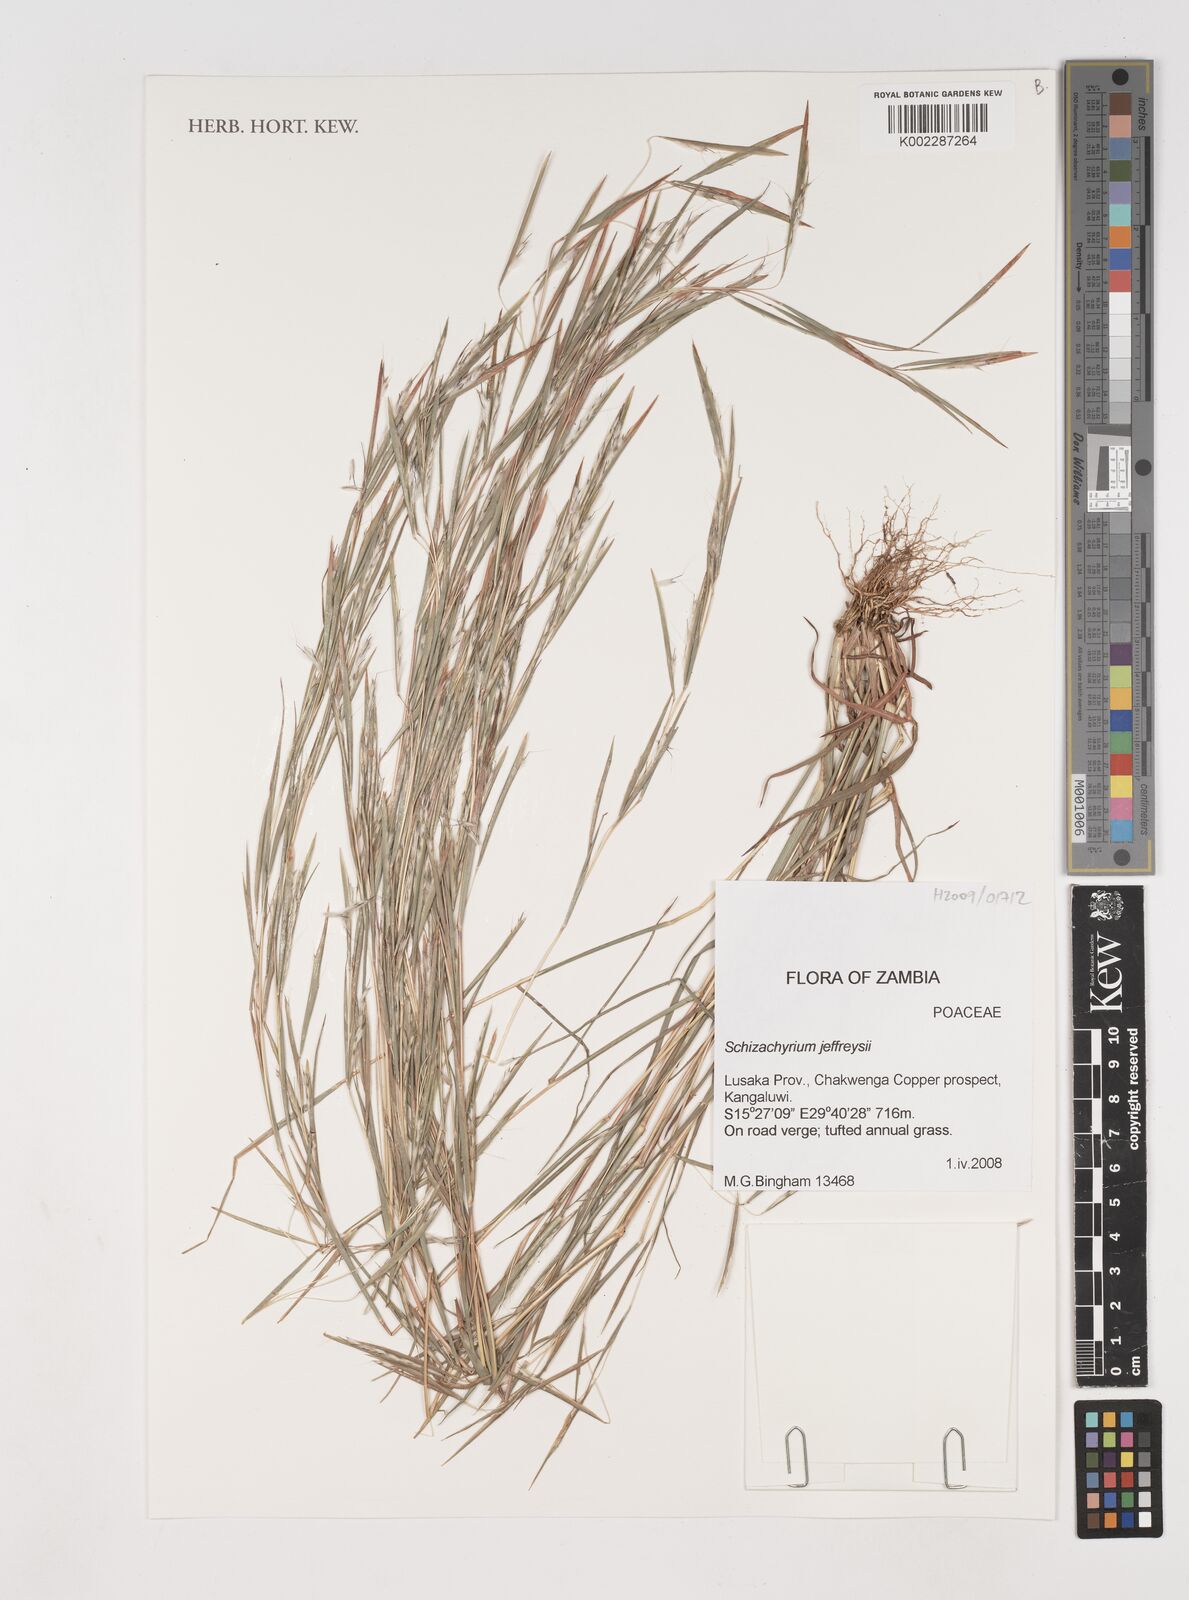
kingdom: Plantae
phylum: Tracheophyta
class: Liliopsida
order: Poales
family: Poaceae
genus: Schizachyrium
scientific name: Schizachyrium jeffreysii
